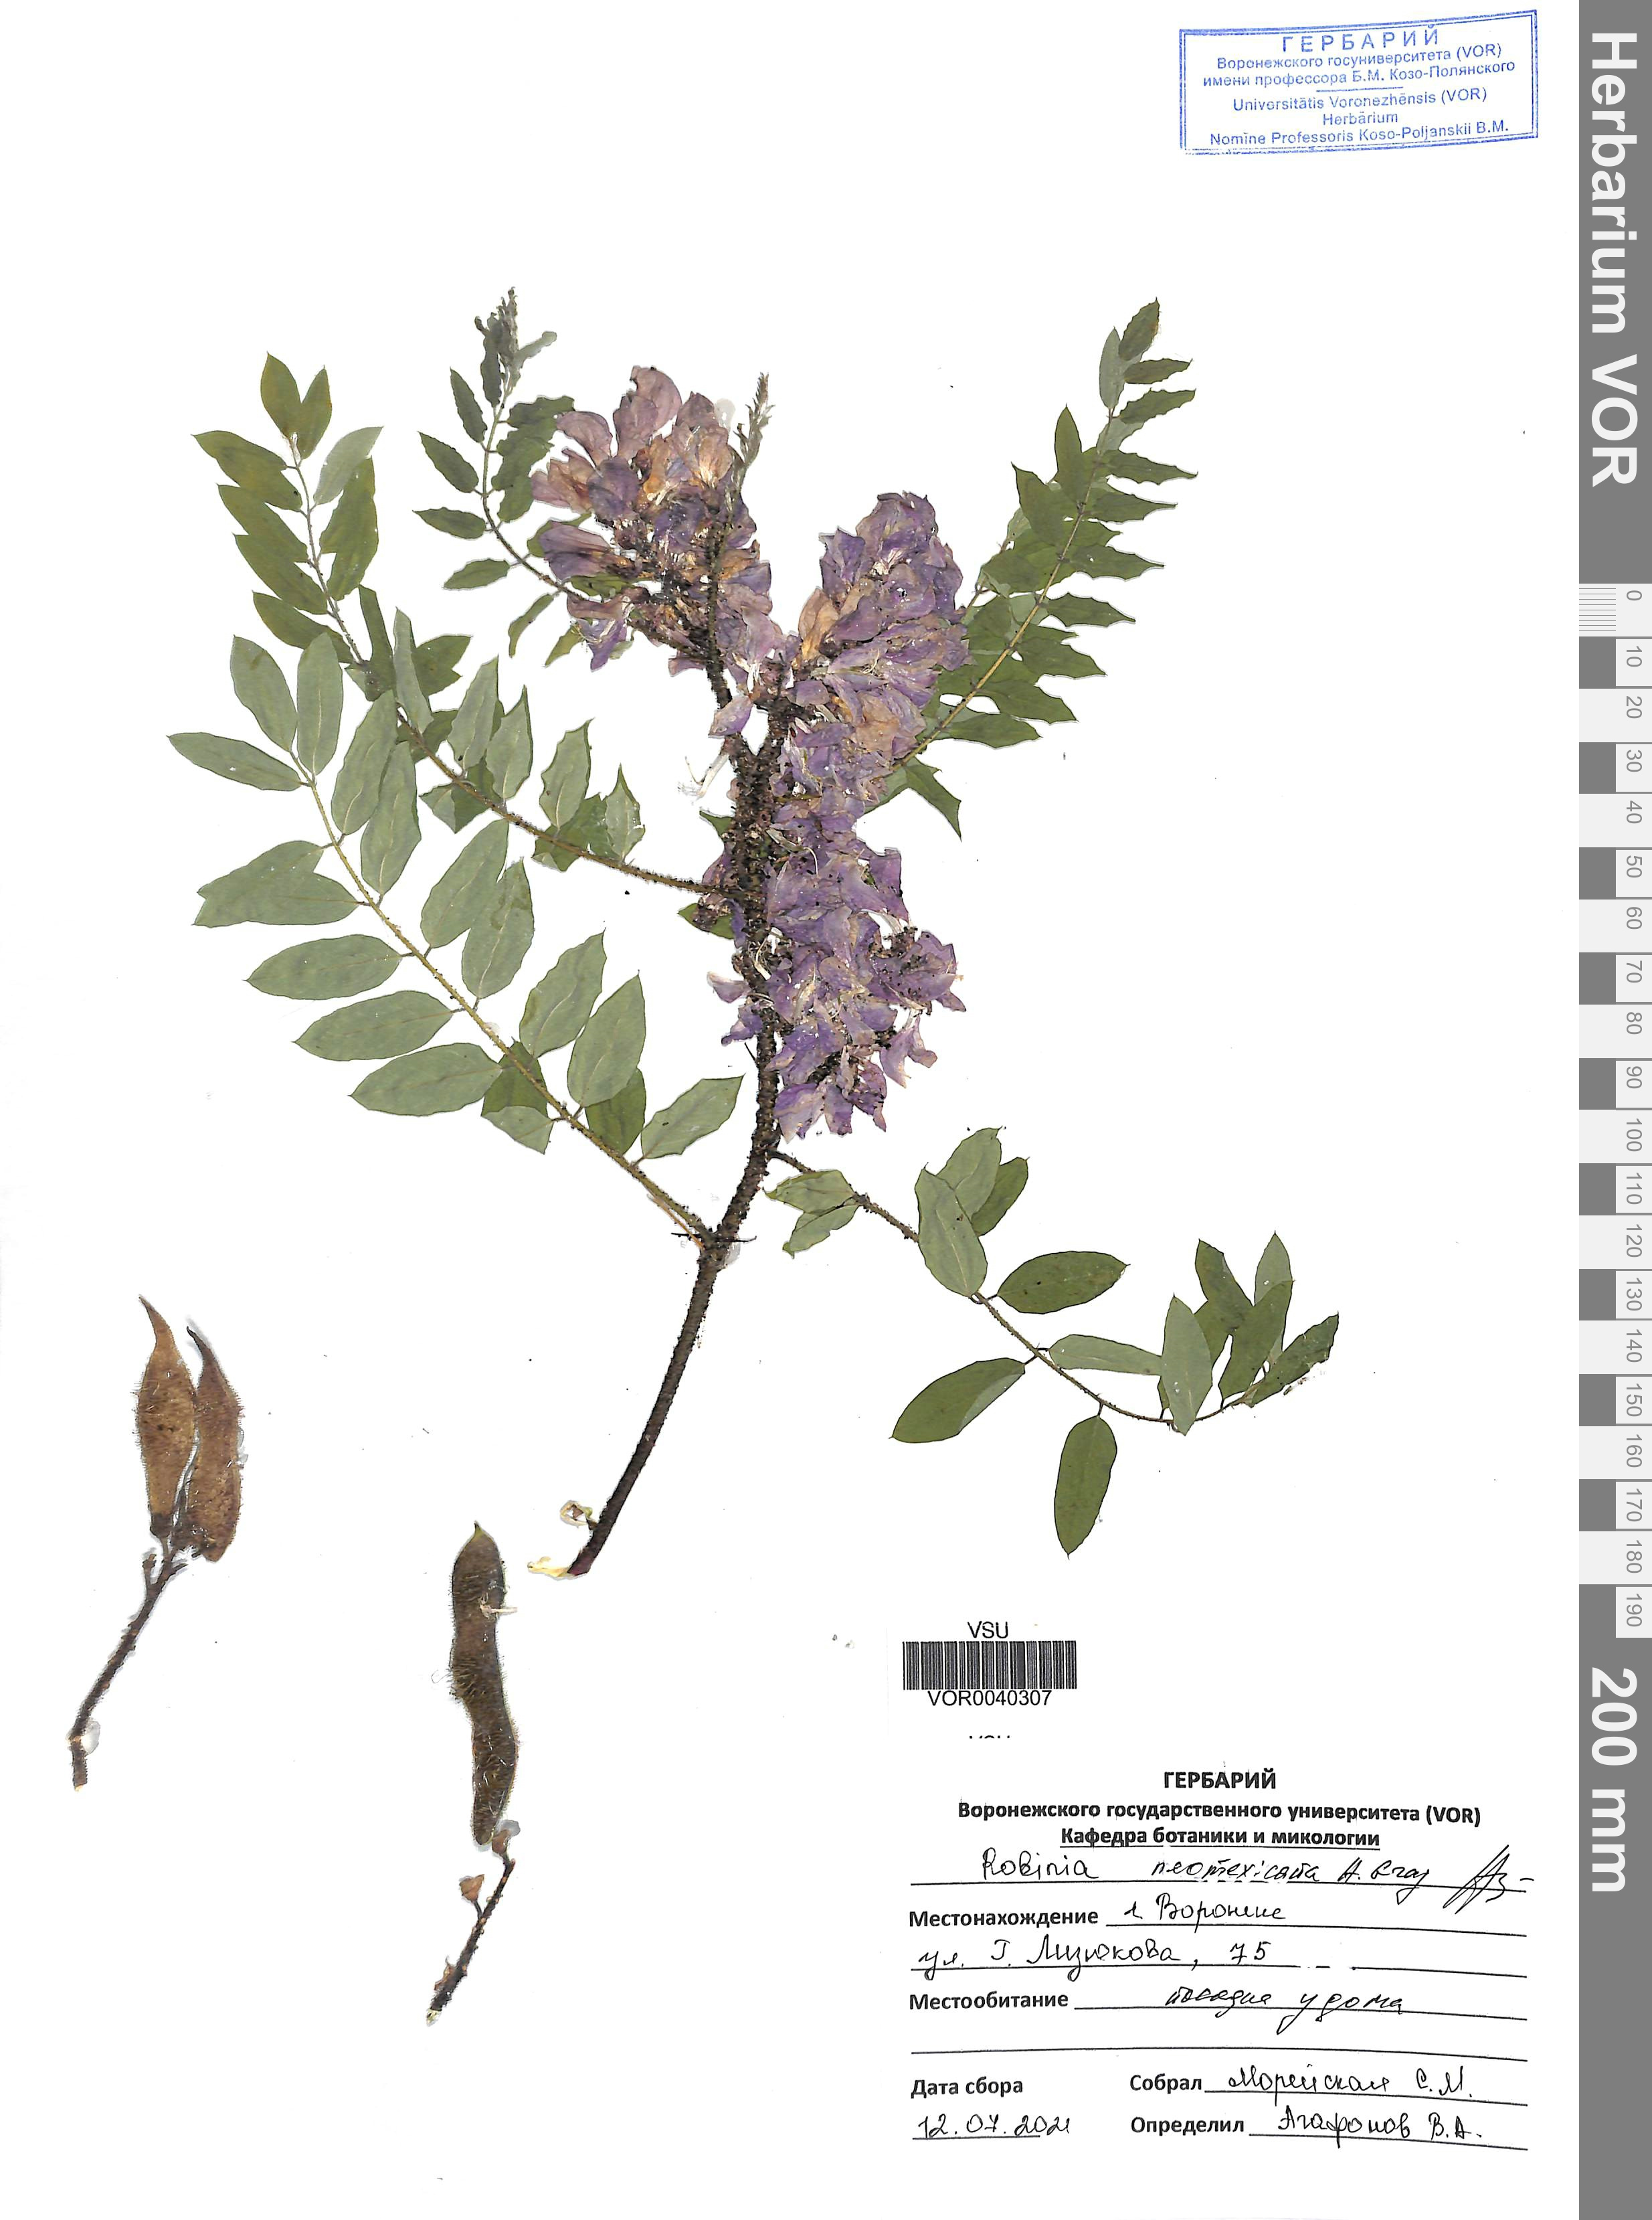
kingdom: Plantae
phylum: Tracheophyta
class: Magnoliopsida
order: Fabales
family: Fabaceae
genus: Robinia
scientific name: Robinia neomexicana
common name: New mexico locust
